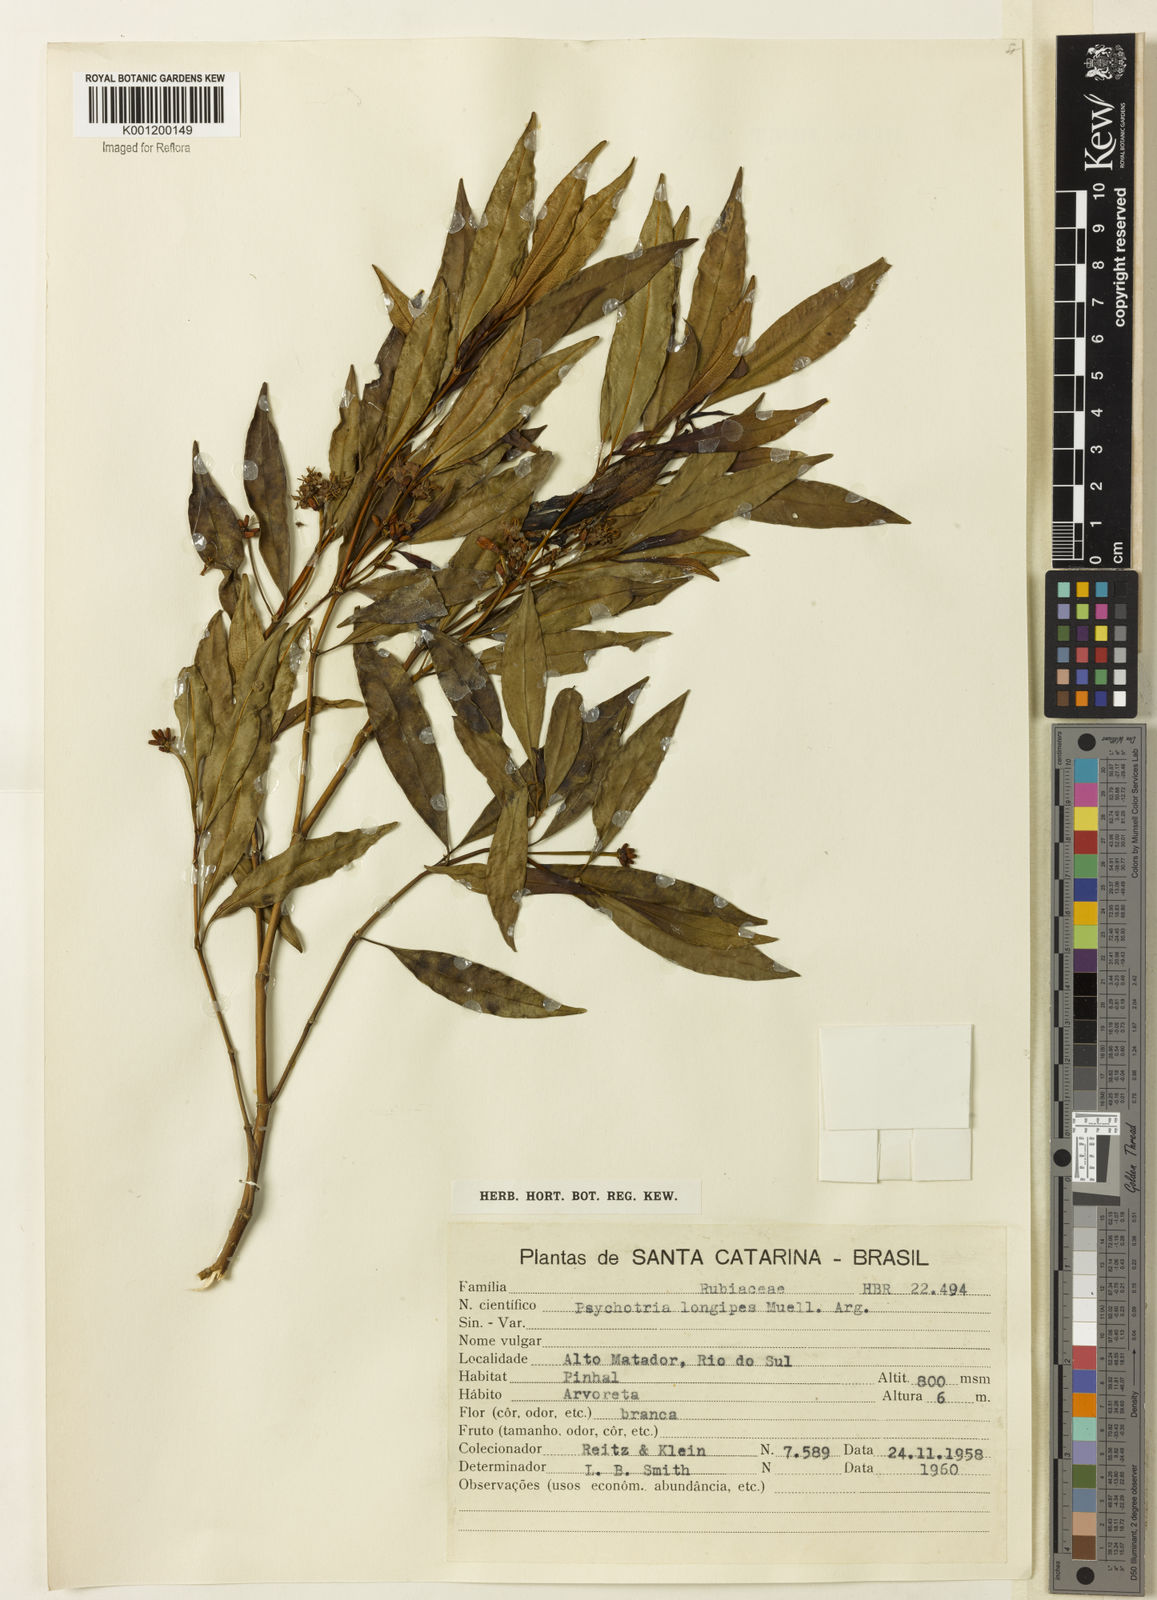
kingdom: Plantae
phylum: Tracheophyta
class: Magnoliopsida
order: Gentianales
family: Rubiaceae
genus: Rudgea
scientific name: Rudgea sessilis
